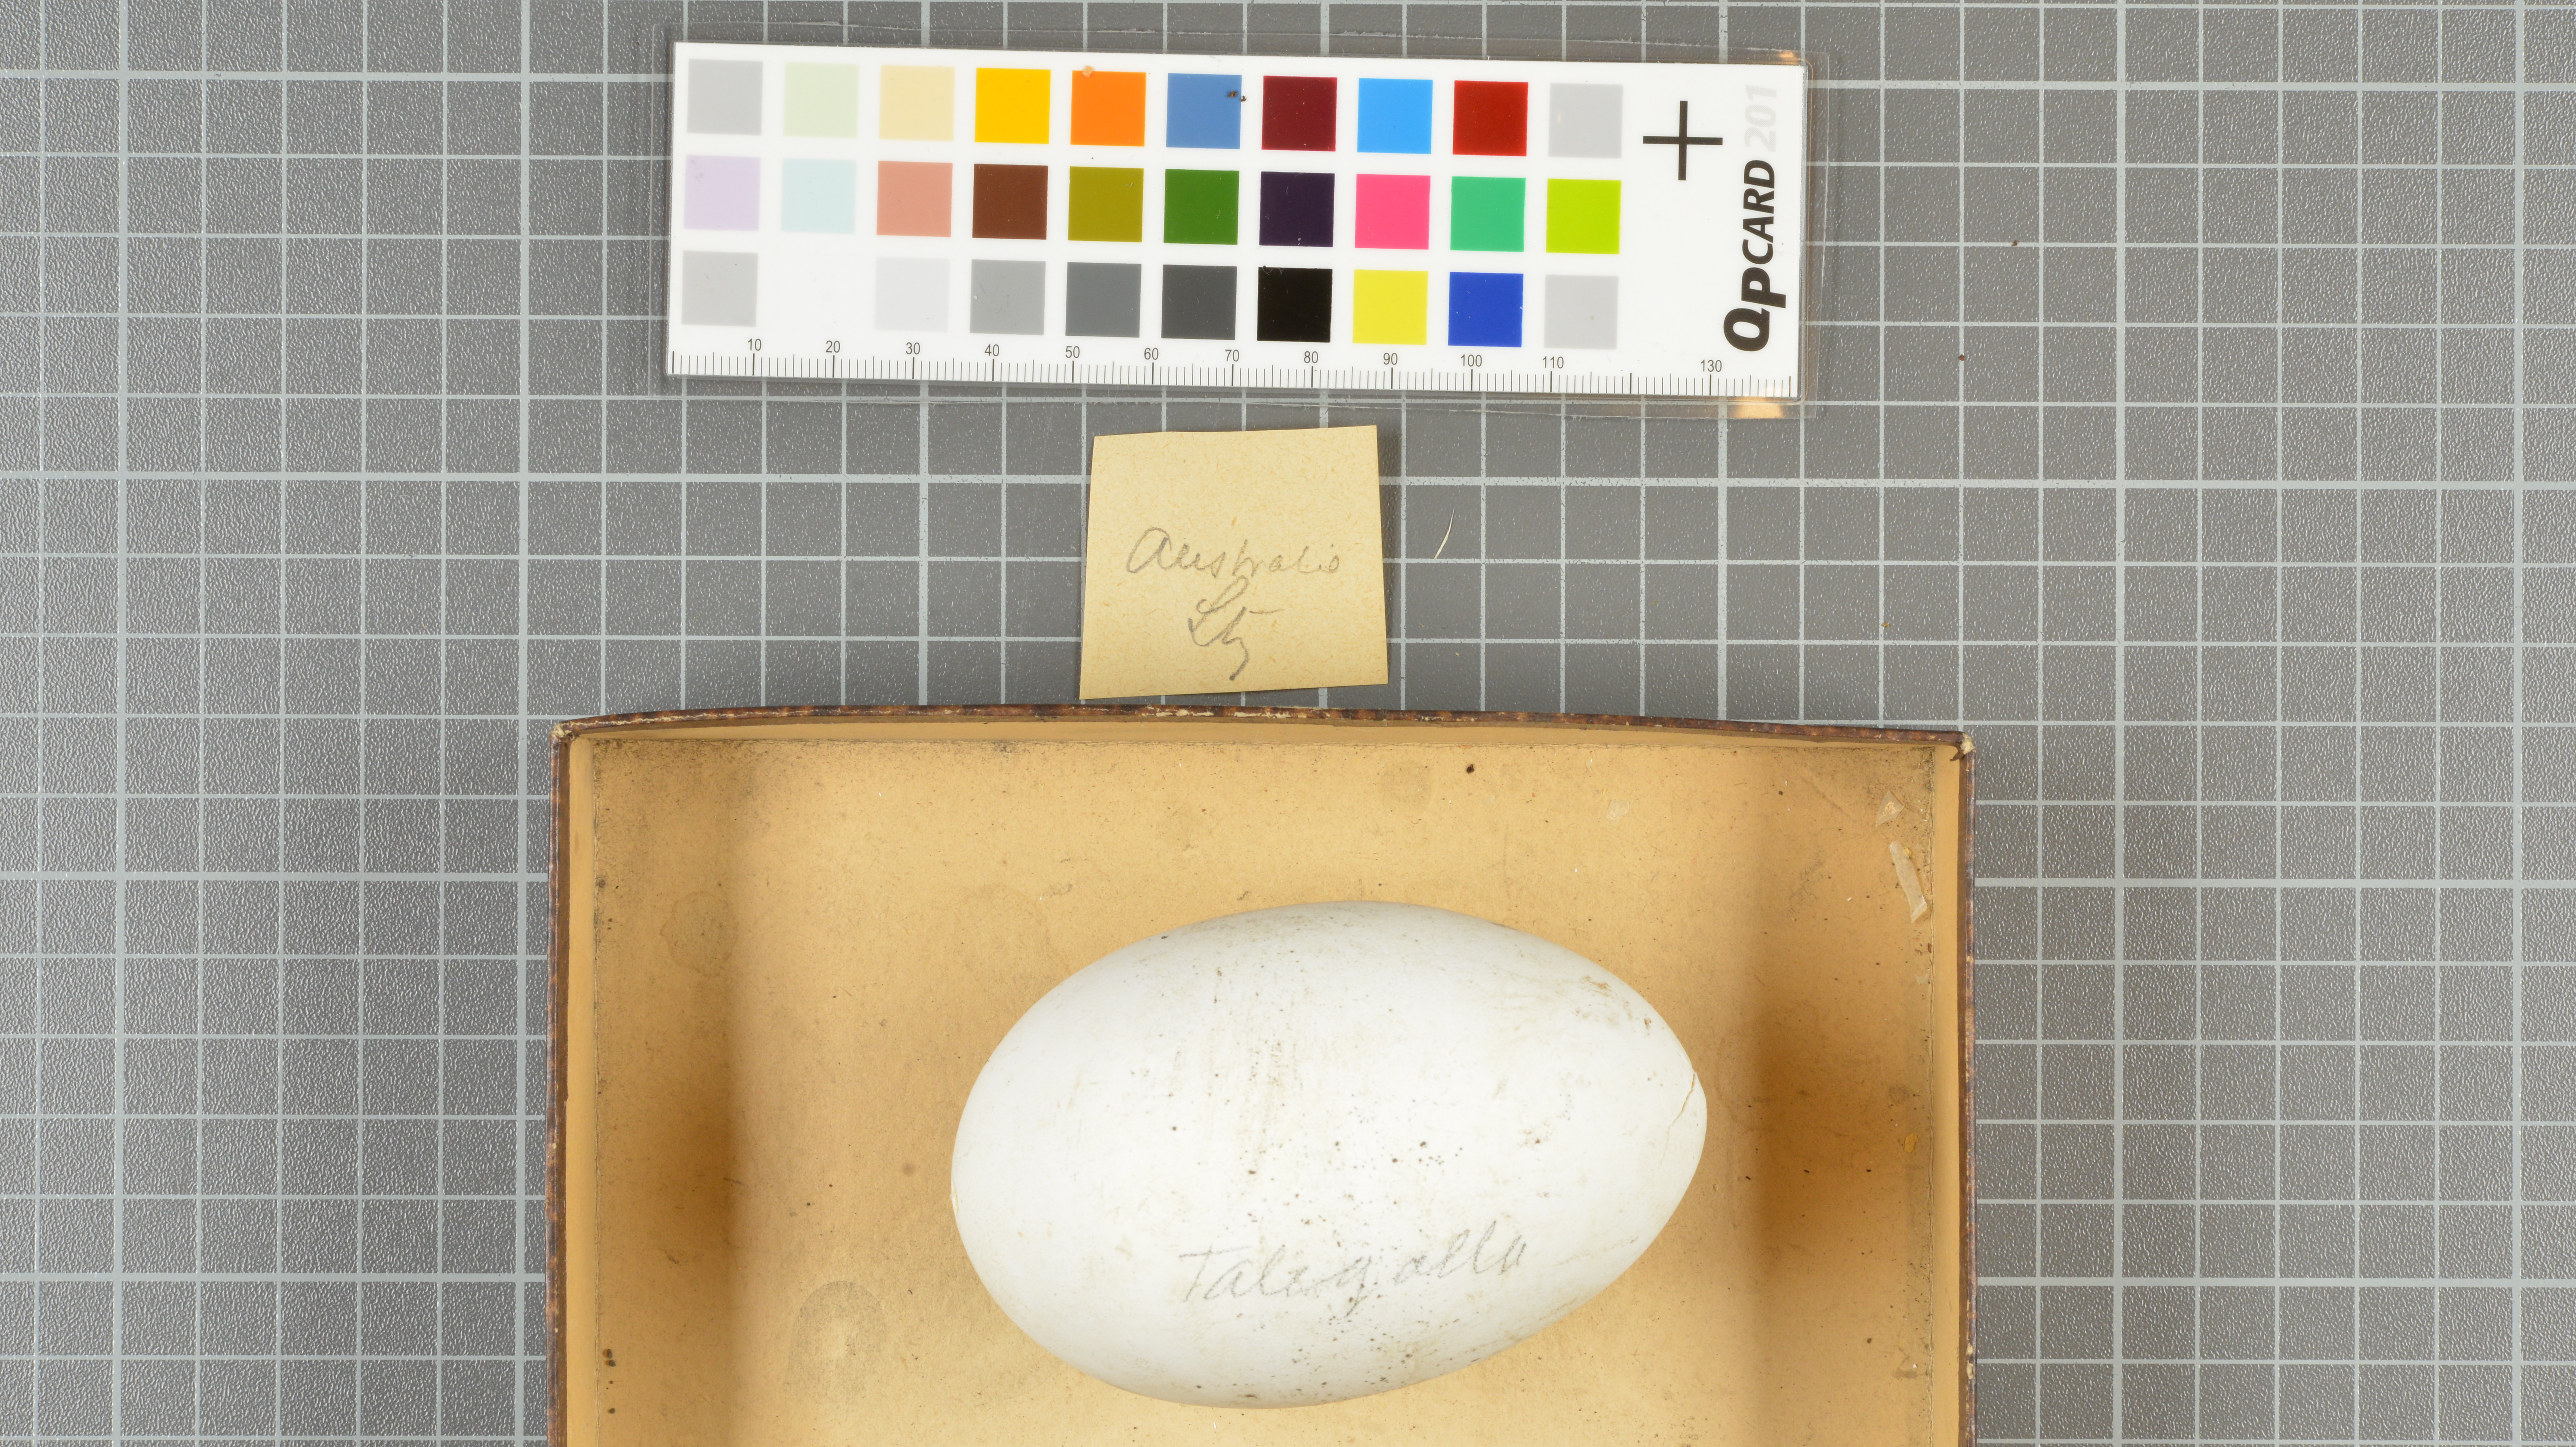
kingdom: Animalia
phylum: Chordata
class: Aves
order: Galliformes
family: Megapodiidae
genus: Talegalla
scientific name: Talegalla
